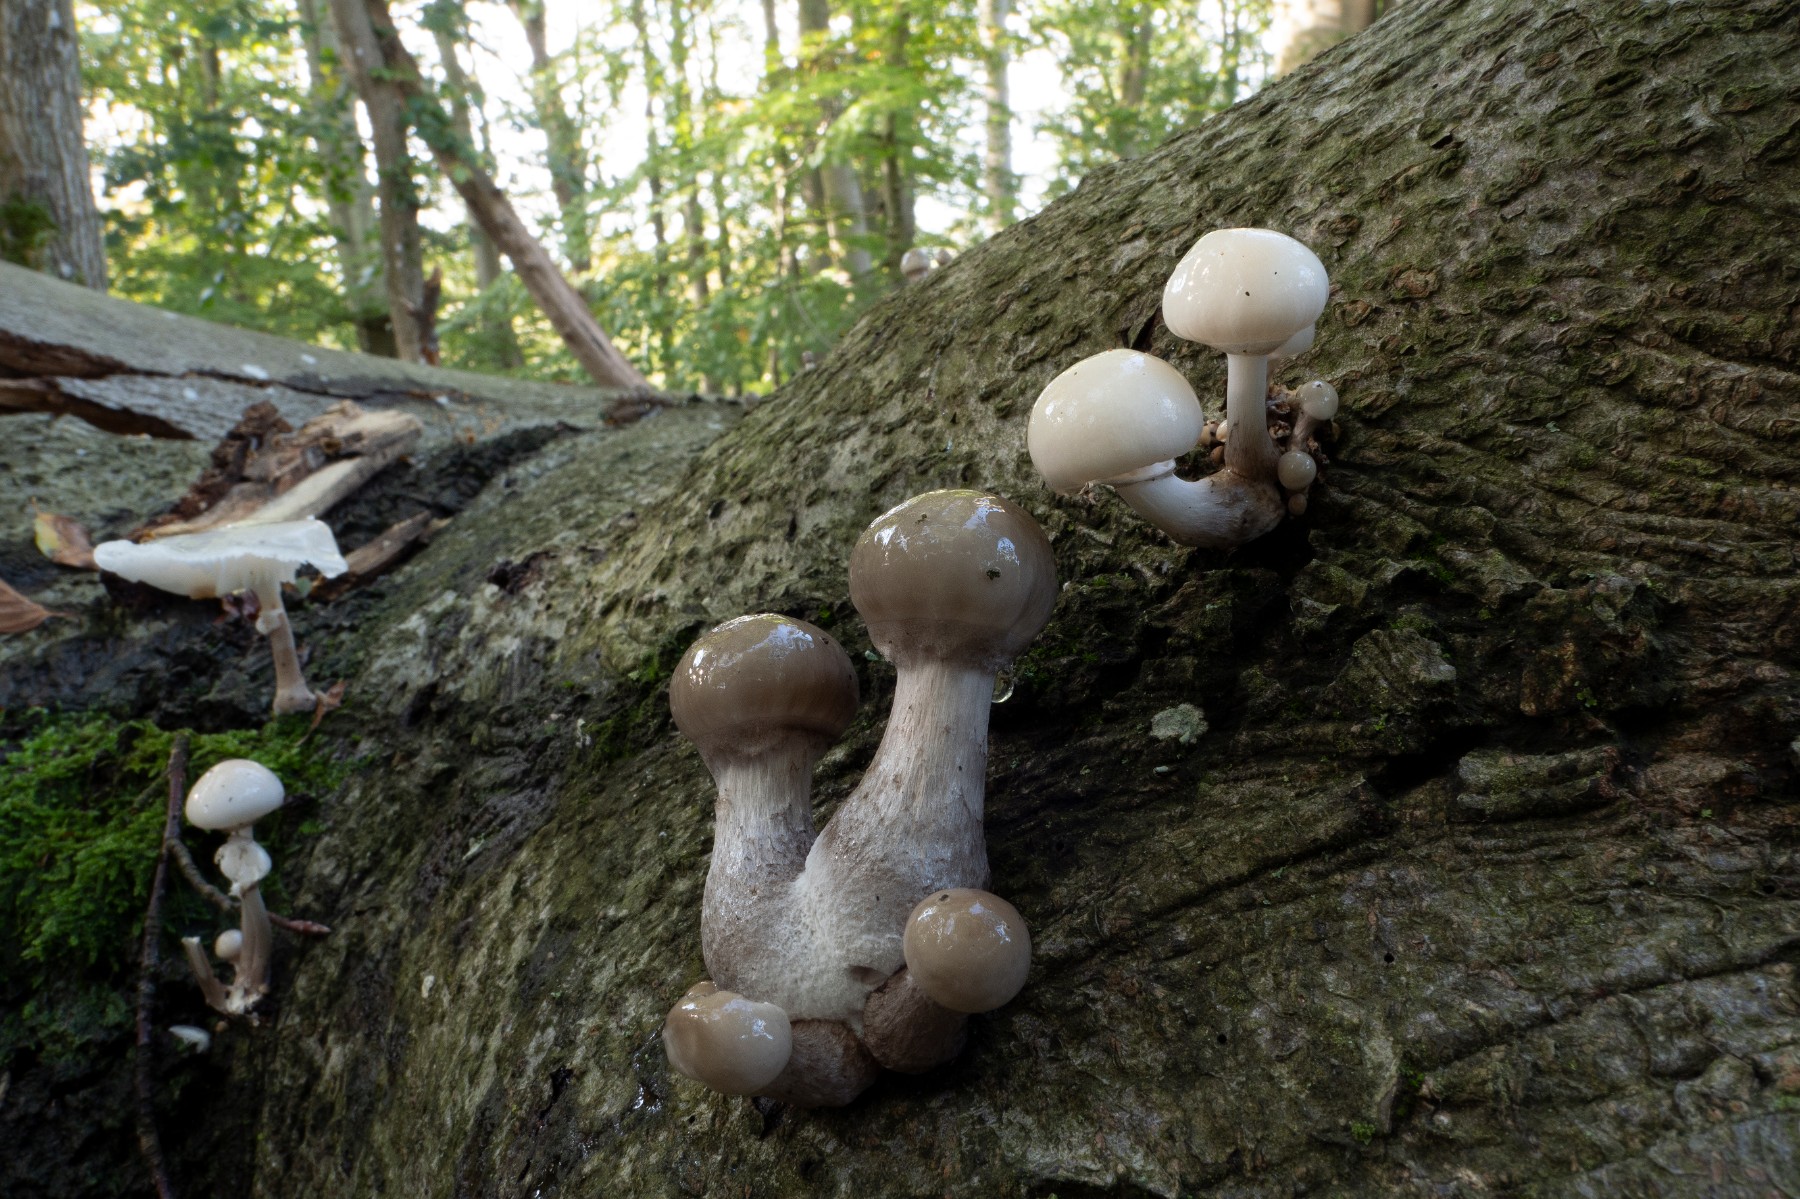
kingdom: Fungi
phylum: Basidiomycota
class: Agaricomycetes
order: Agaricales
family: Physalacriaceae
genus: Mucidula
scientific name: Mucidula mucida
